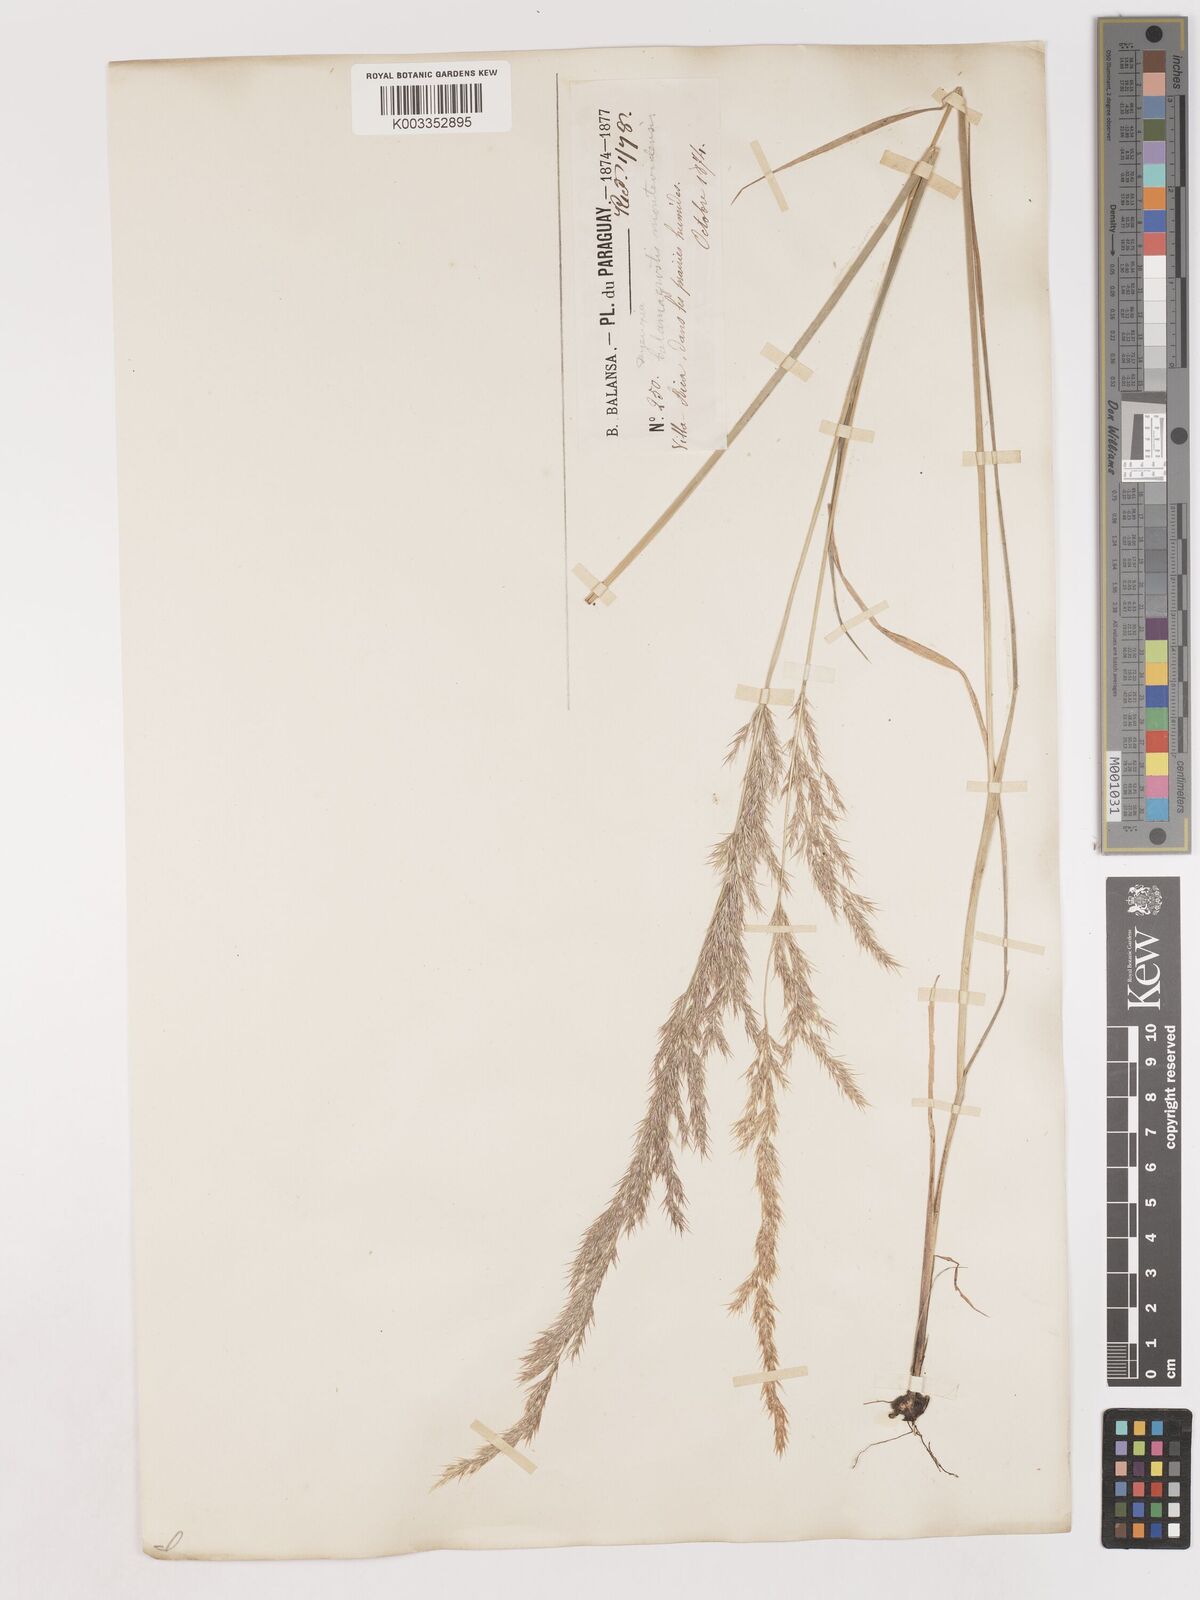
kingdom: Plantae
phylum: Tracheophyta
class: Liliopsida
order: Poales
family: Poaceae
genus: Cinnagrostis
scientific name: Cinnagrostis viridiflavescens
